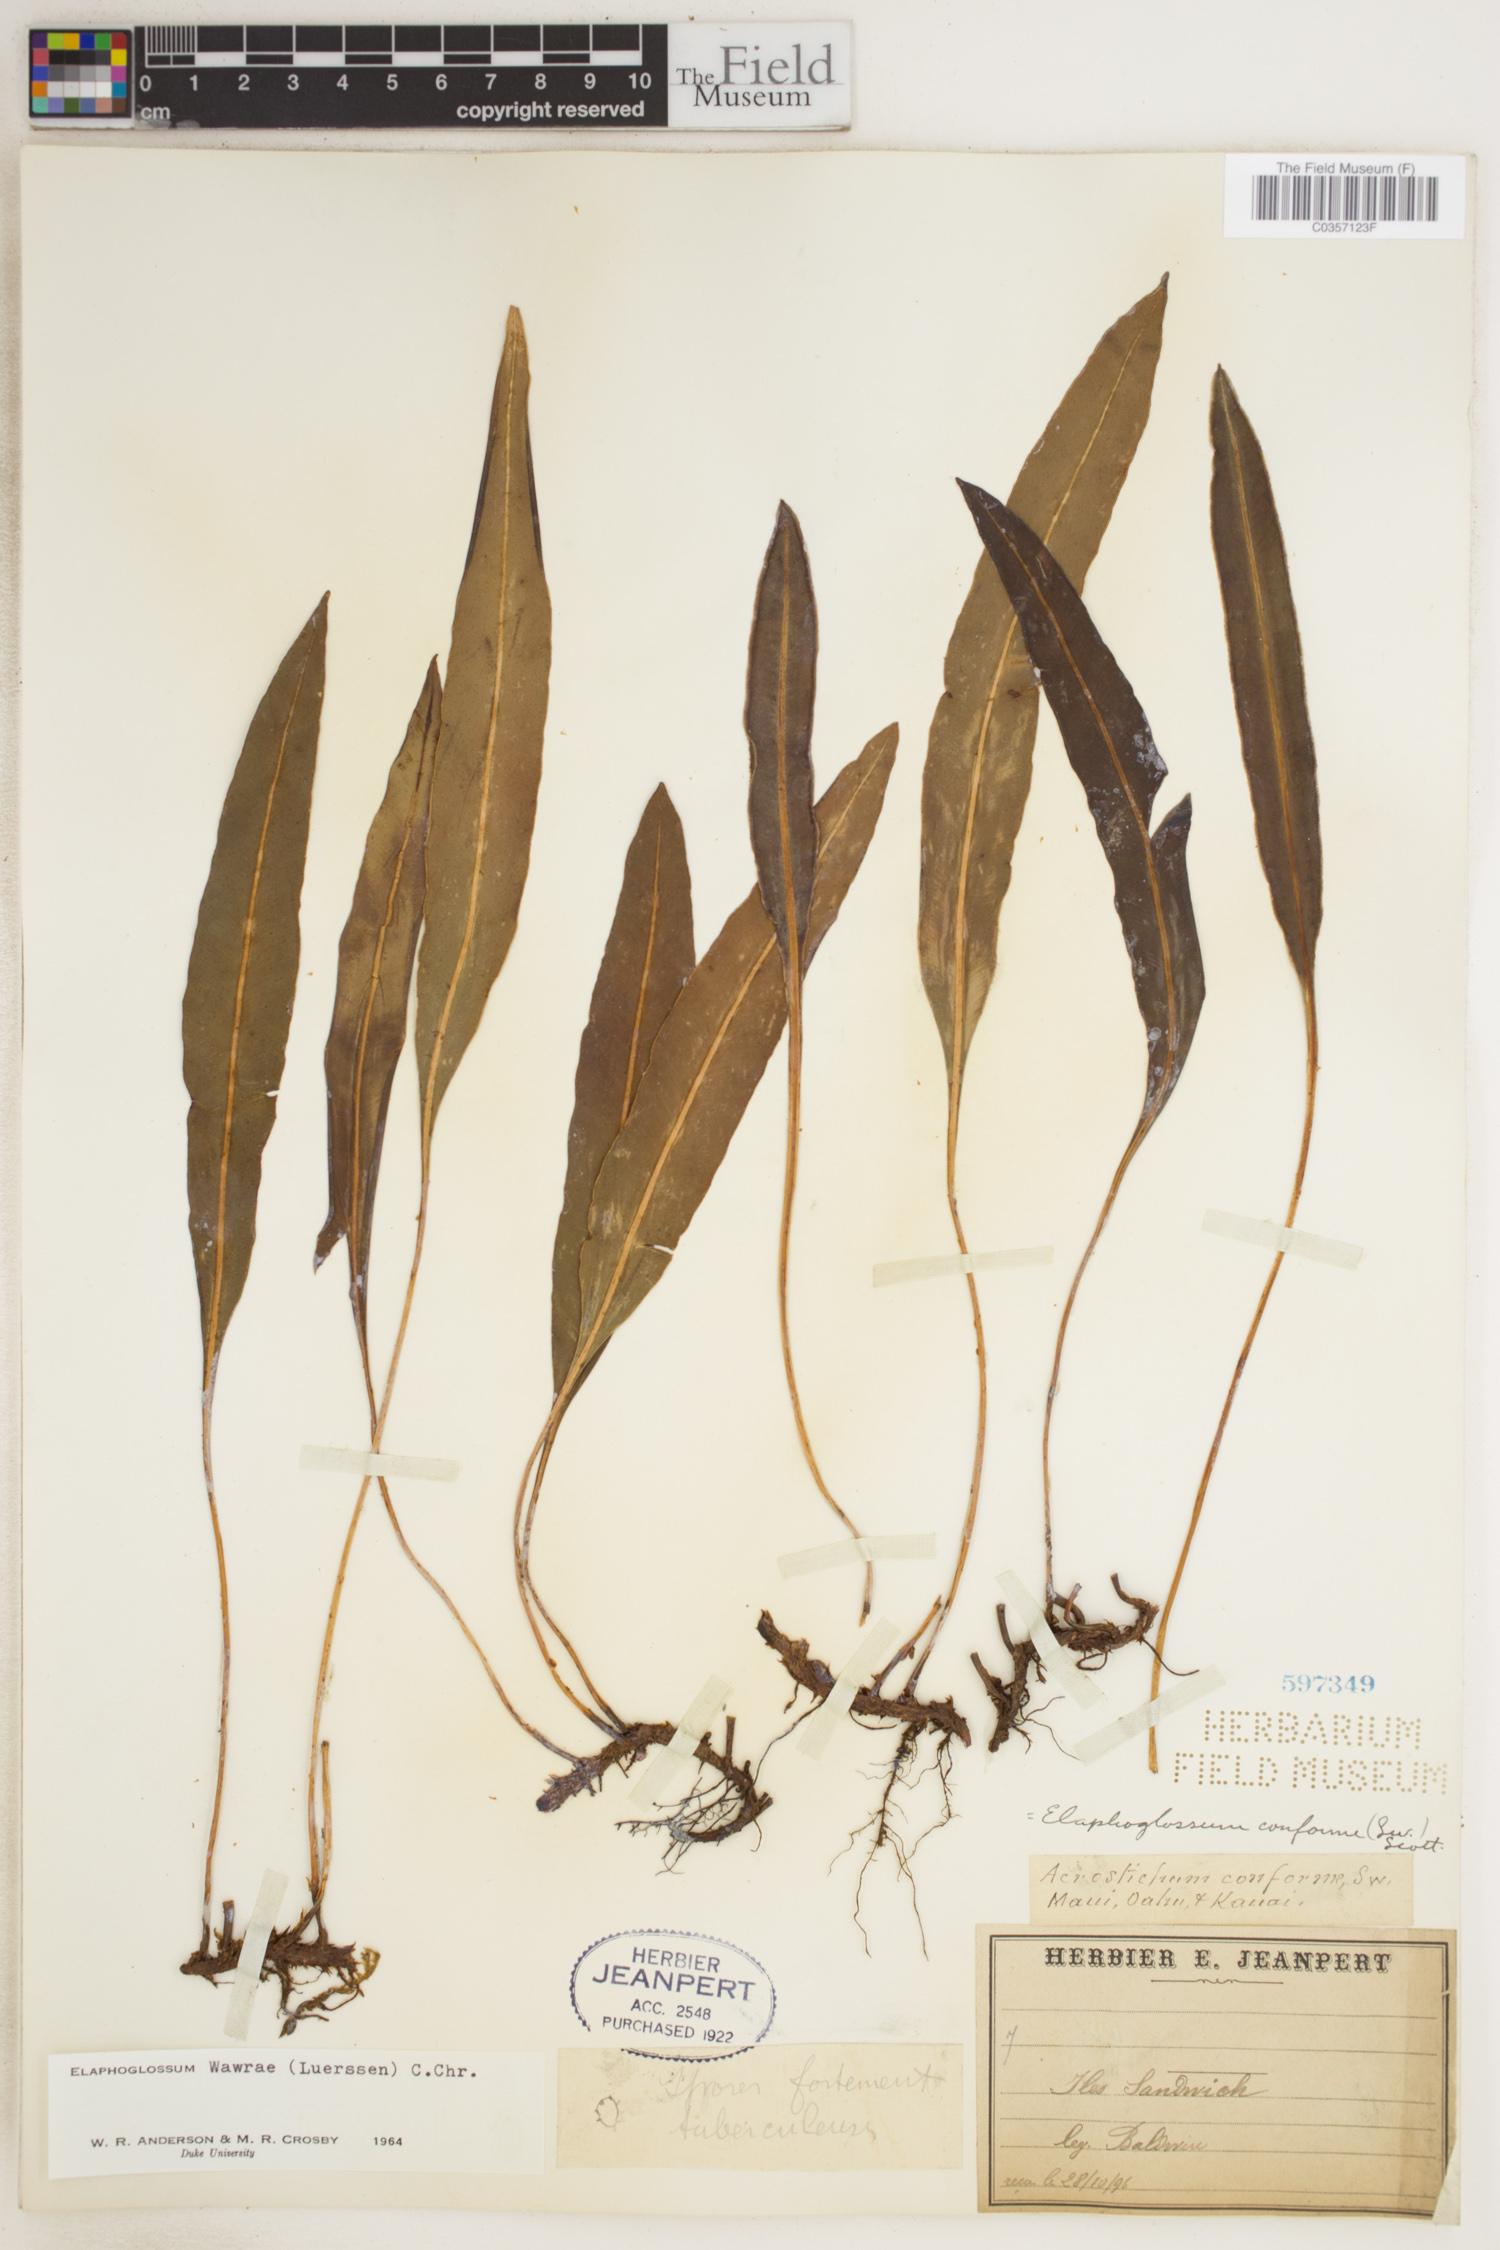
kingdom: Plantae
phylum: Tracheophyta
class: Polypodiopsida
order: Polypodiales
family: Dryopteridaceae
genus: Elaphoglossum
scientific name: Elaphoglossum wawrae
